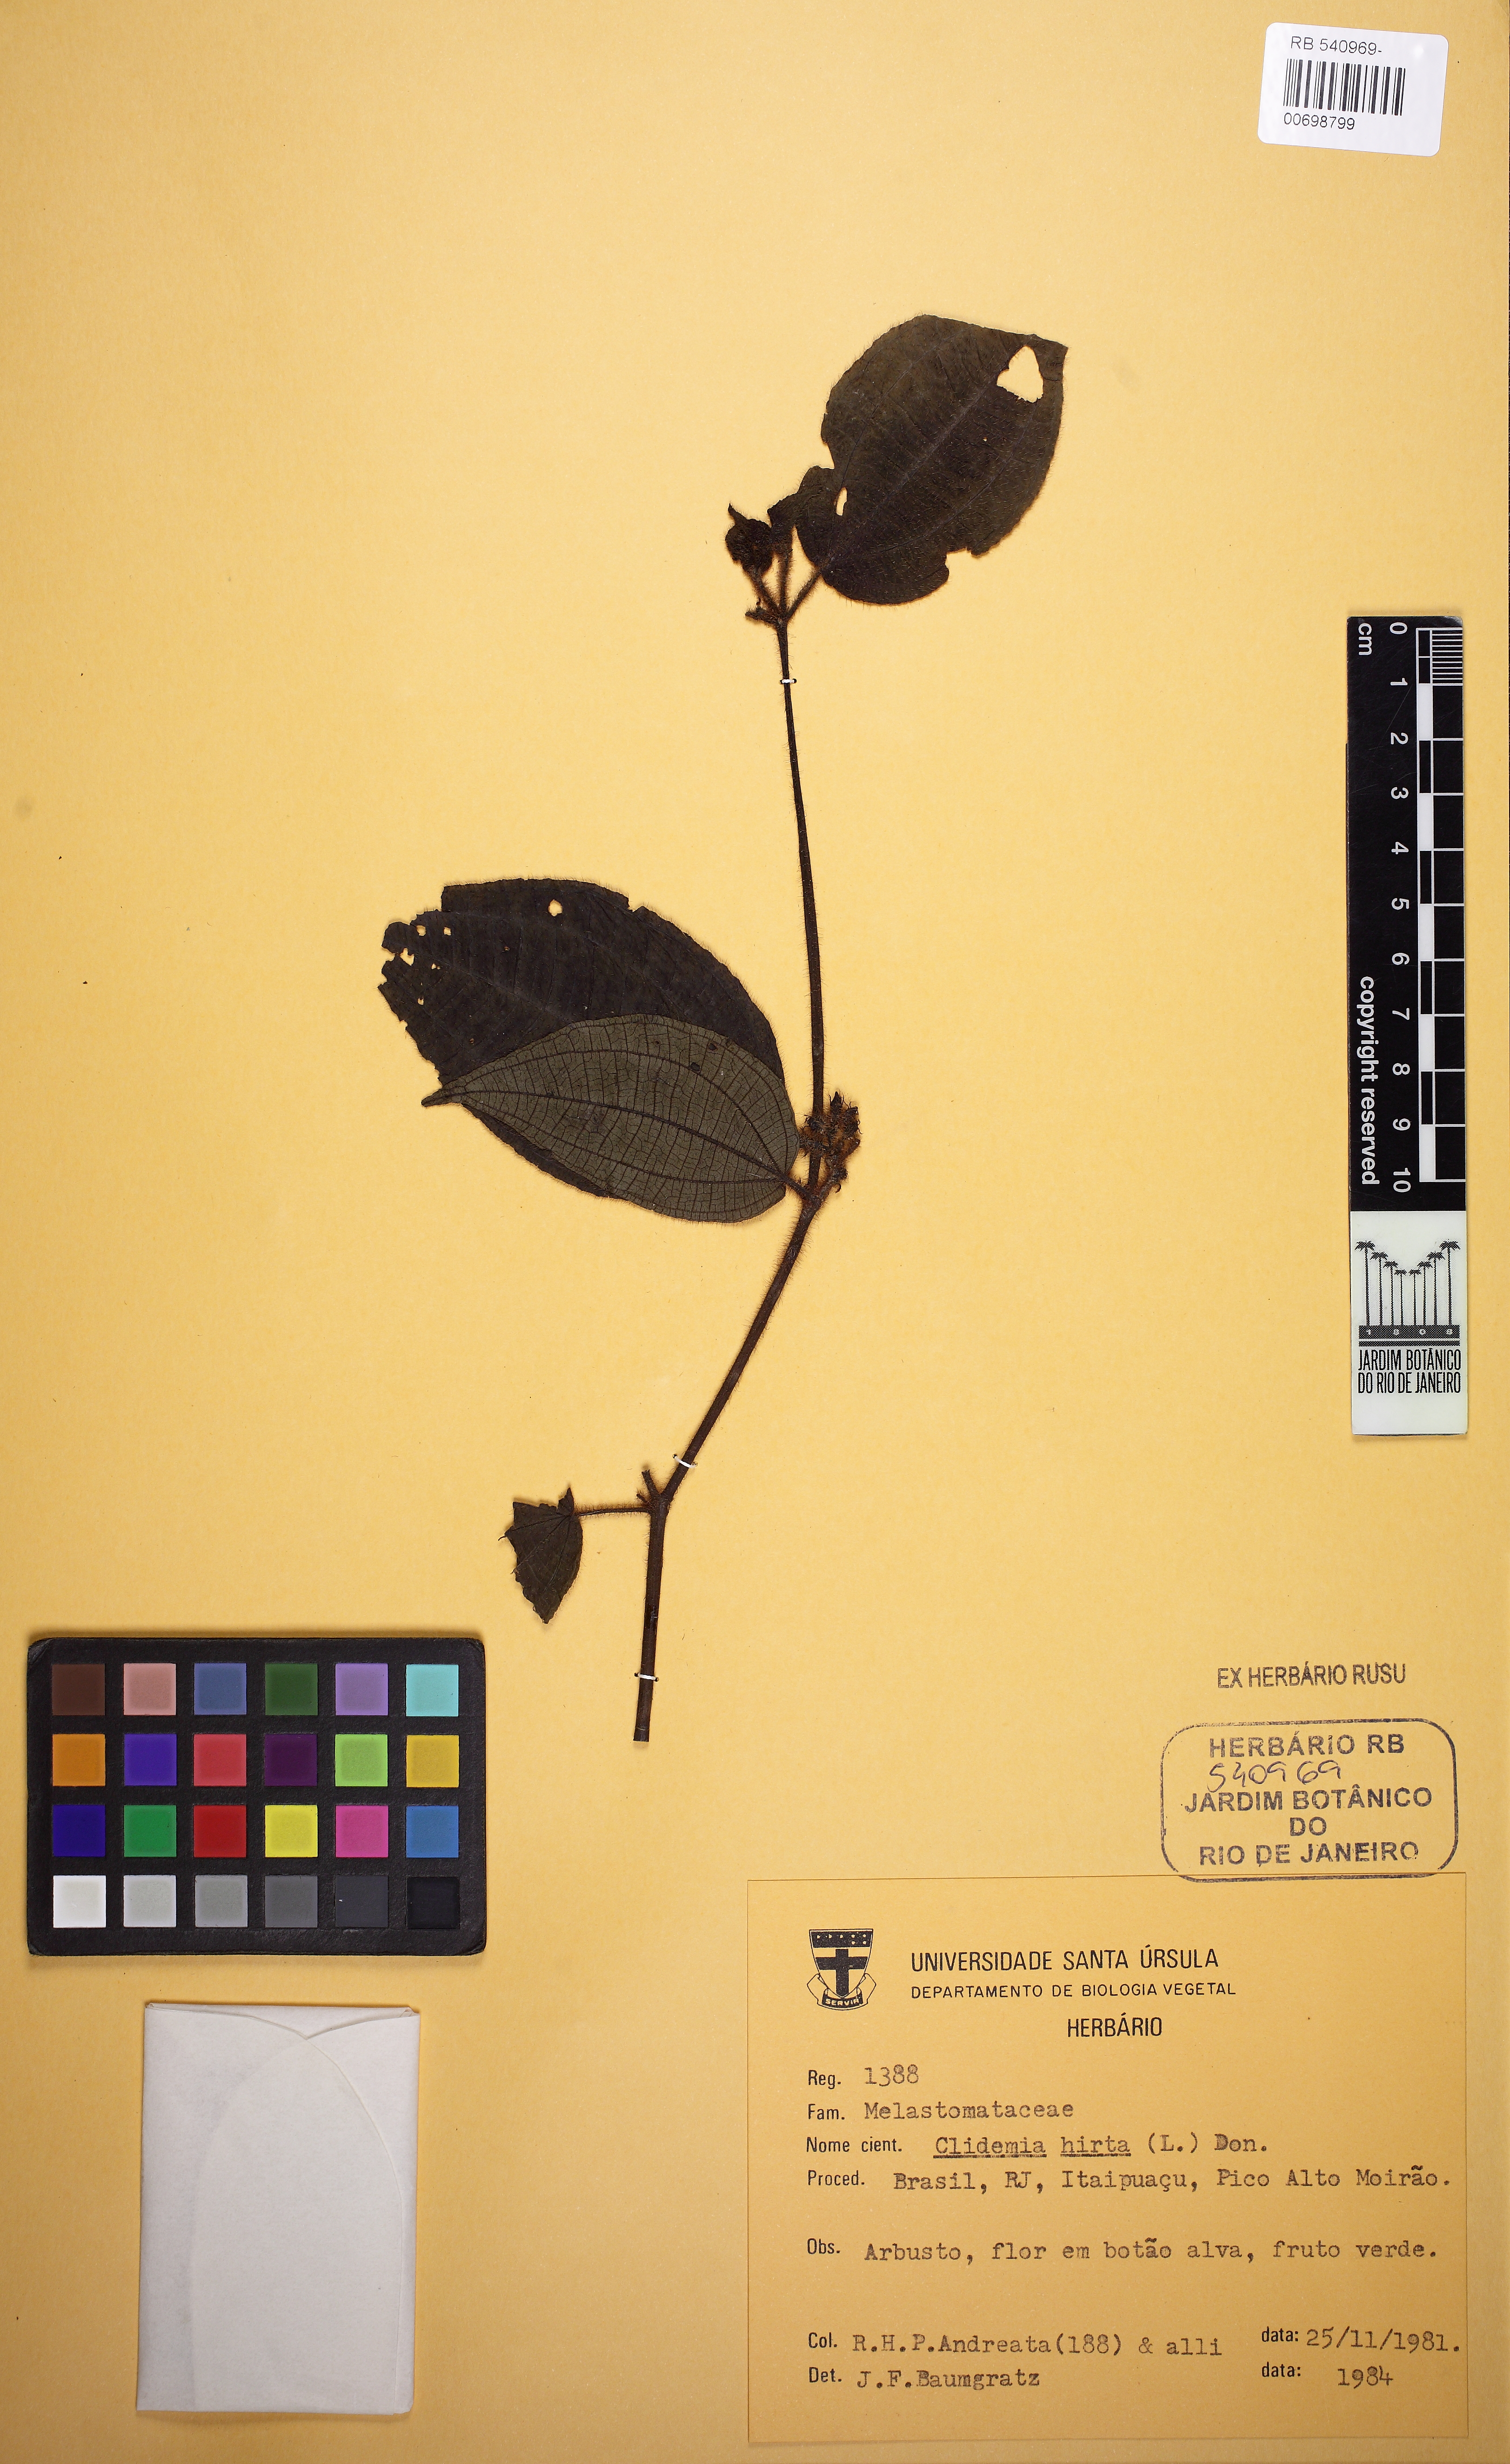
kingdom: Plantae
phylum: Tracheophyta
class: Magnoliopsida
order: Myrtales
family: Melastomataceae
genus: Miconia
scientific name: Miconia crenata
